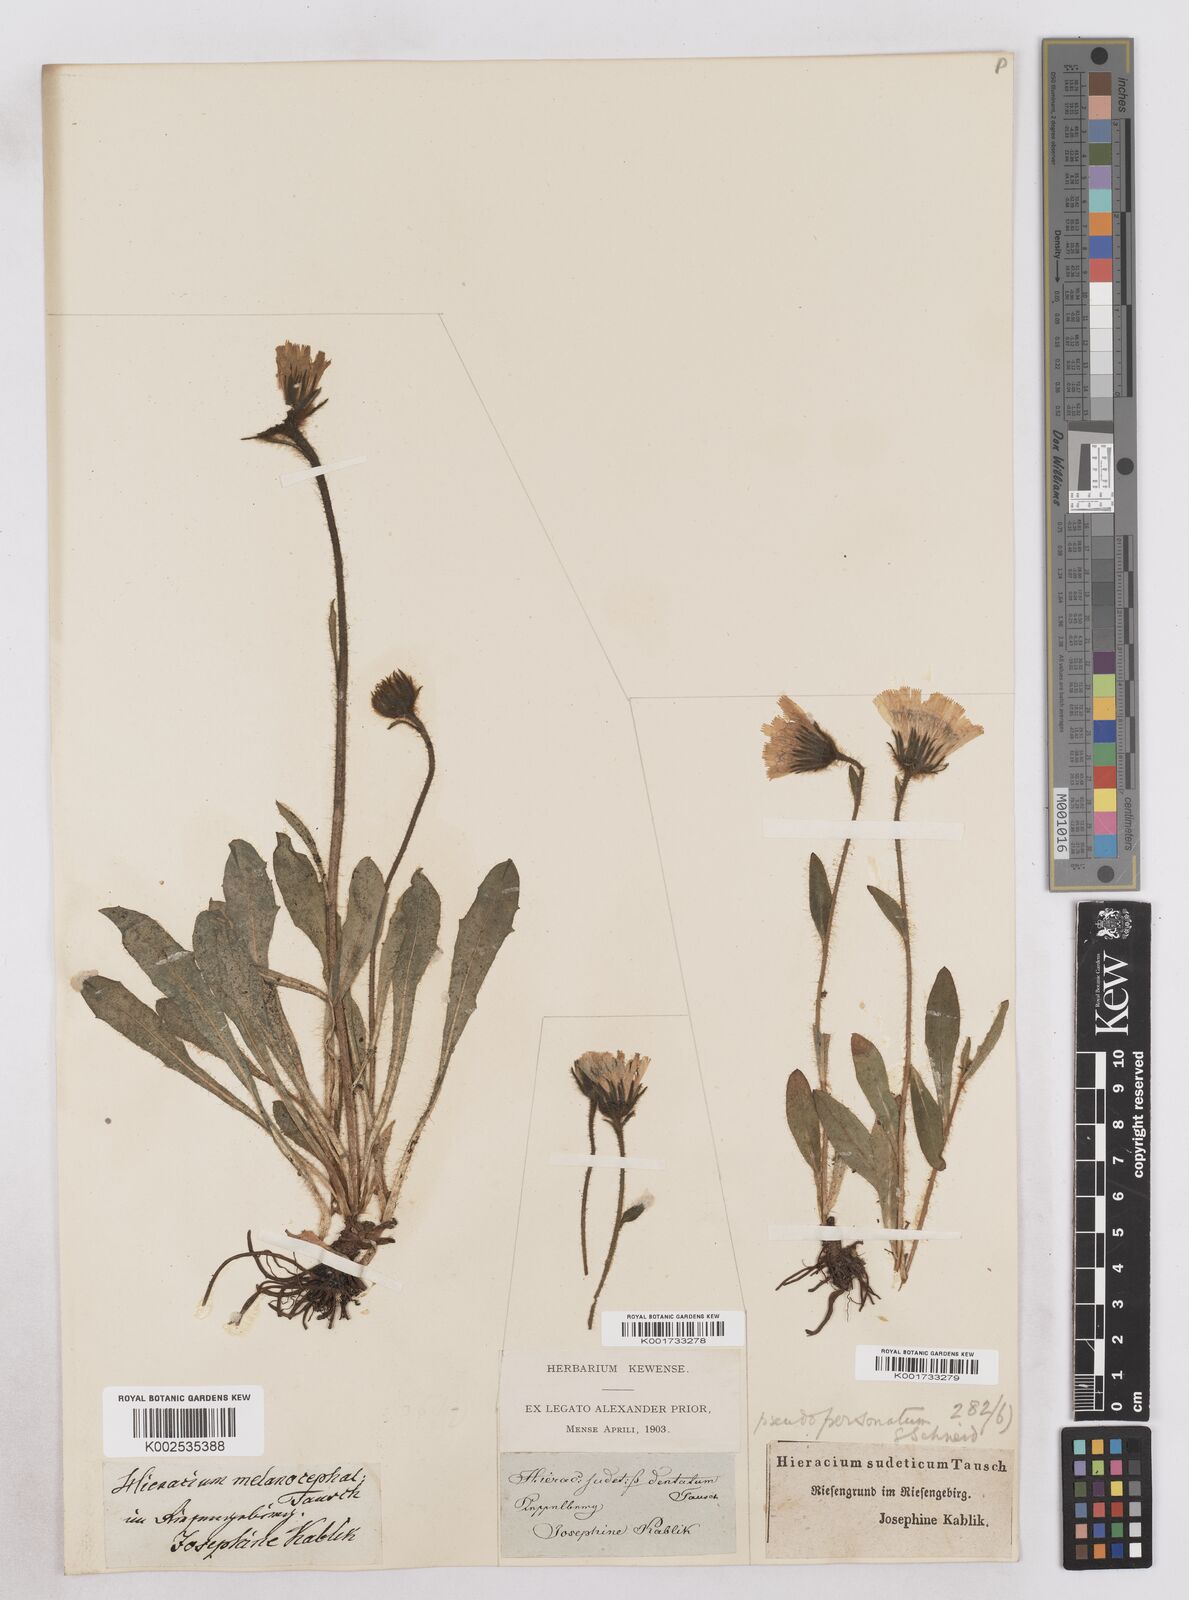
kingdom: Plantae
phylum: Tracheophyta
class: Magnoliopsida
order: Asterales
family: Asteraceae
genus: Hieracium
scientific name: Hieracium fritzei
